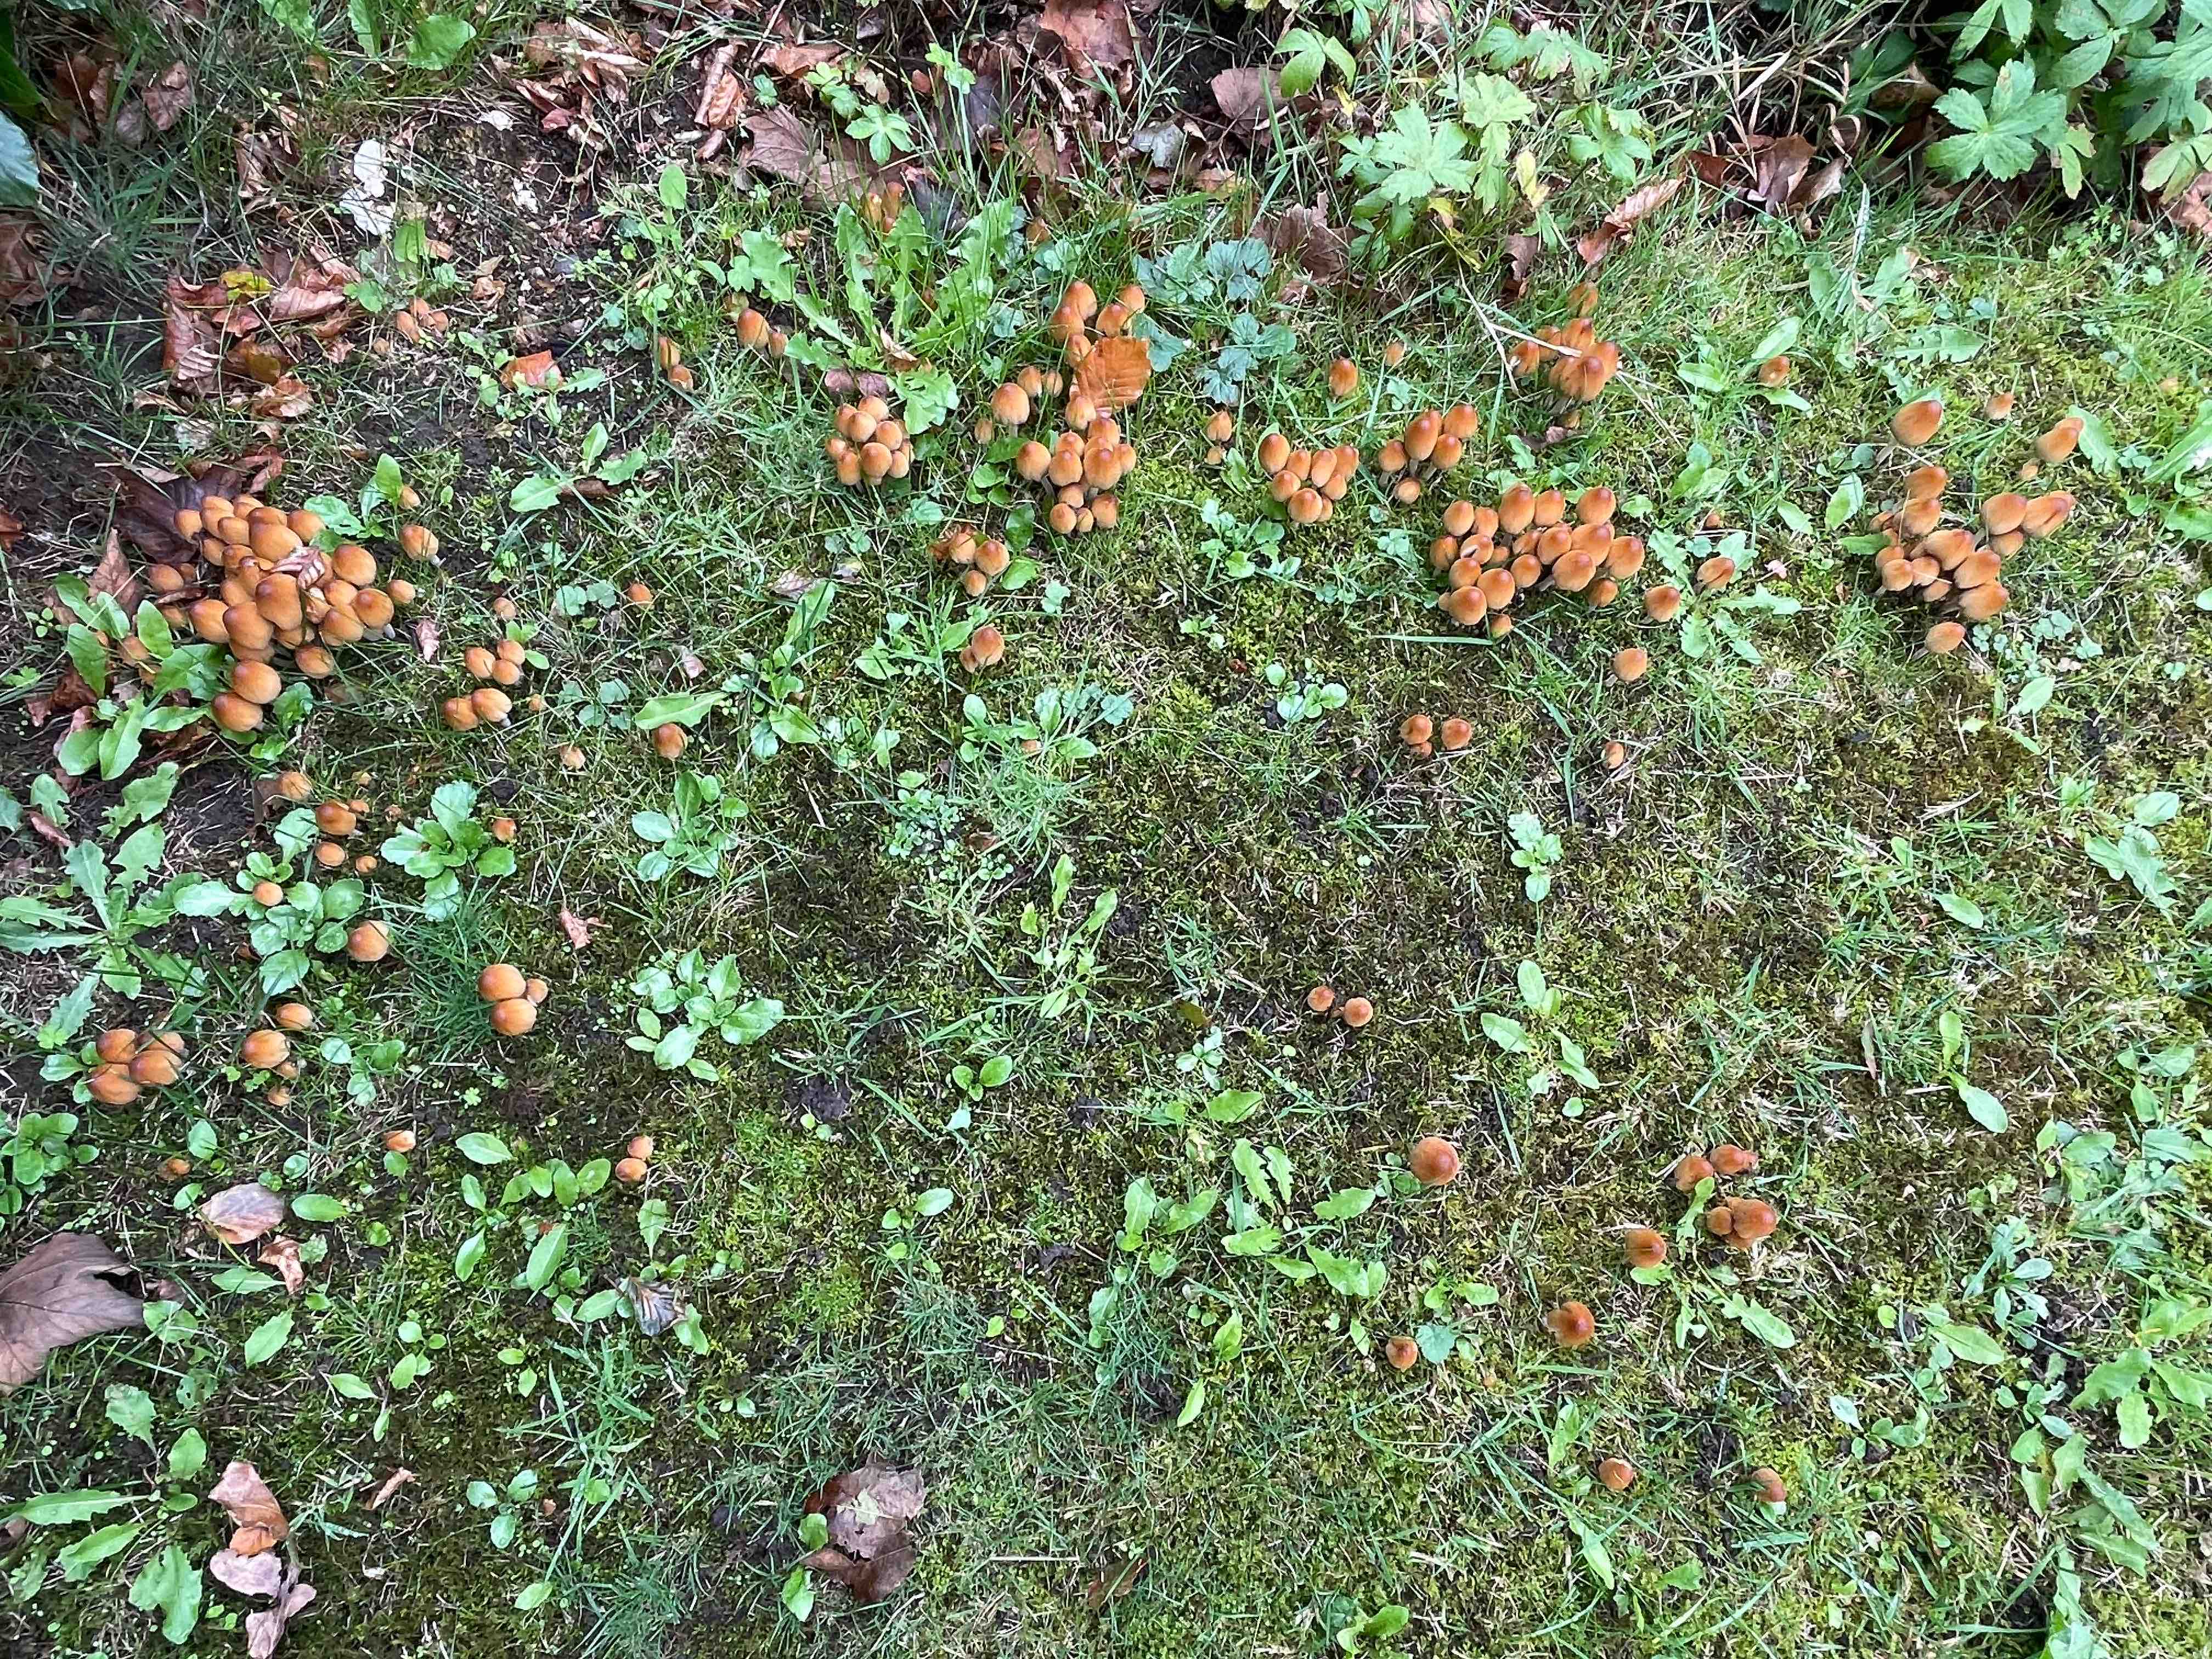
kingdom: Fungi
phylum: Basidiomycota
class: Agaricomycetes
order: Agaricales
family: Psathyrellaceae
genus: Coprinellus
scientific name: Coprinellus micaceus
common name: glimmer-blækhat
